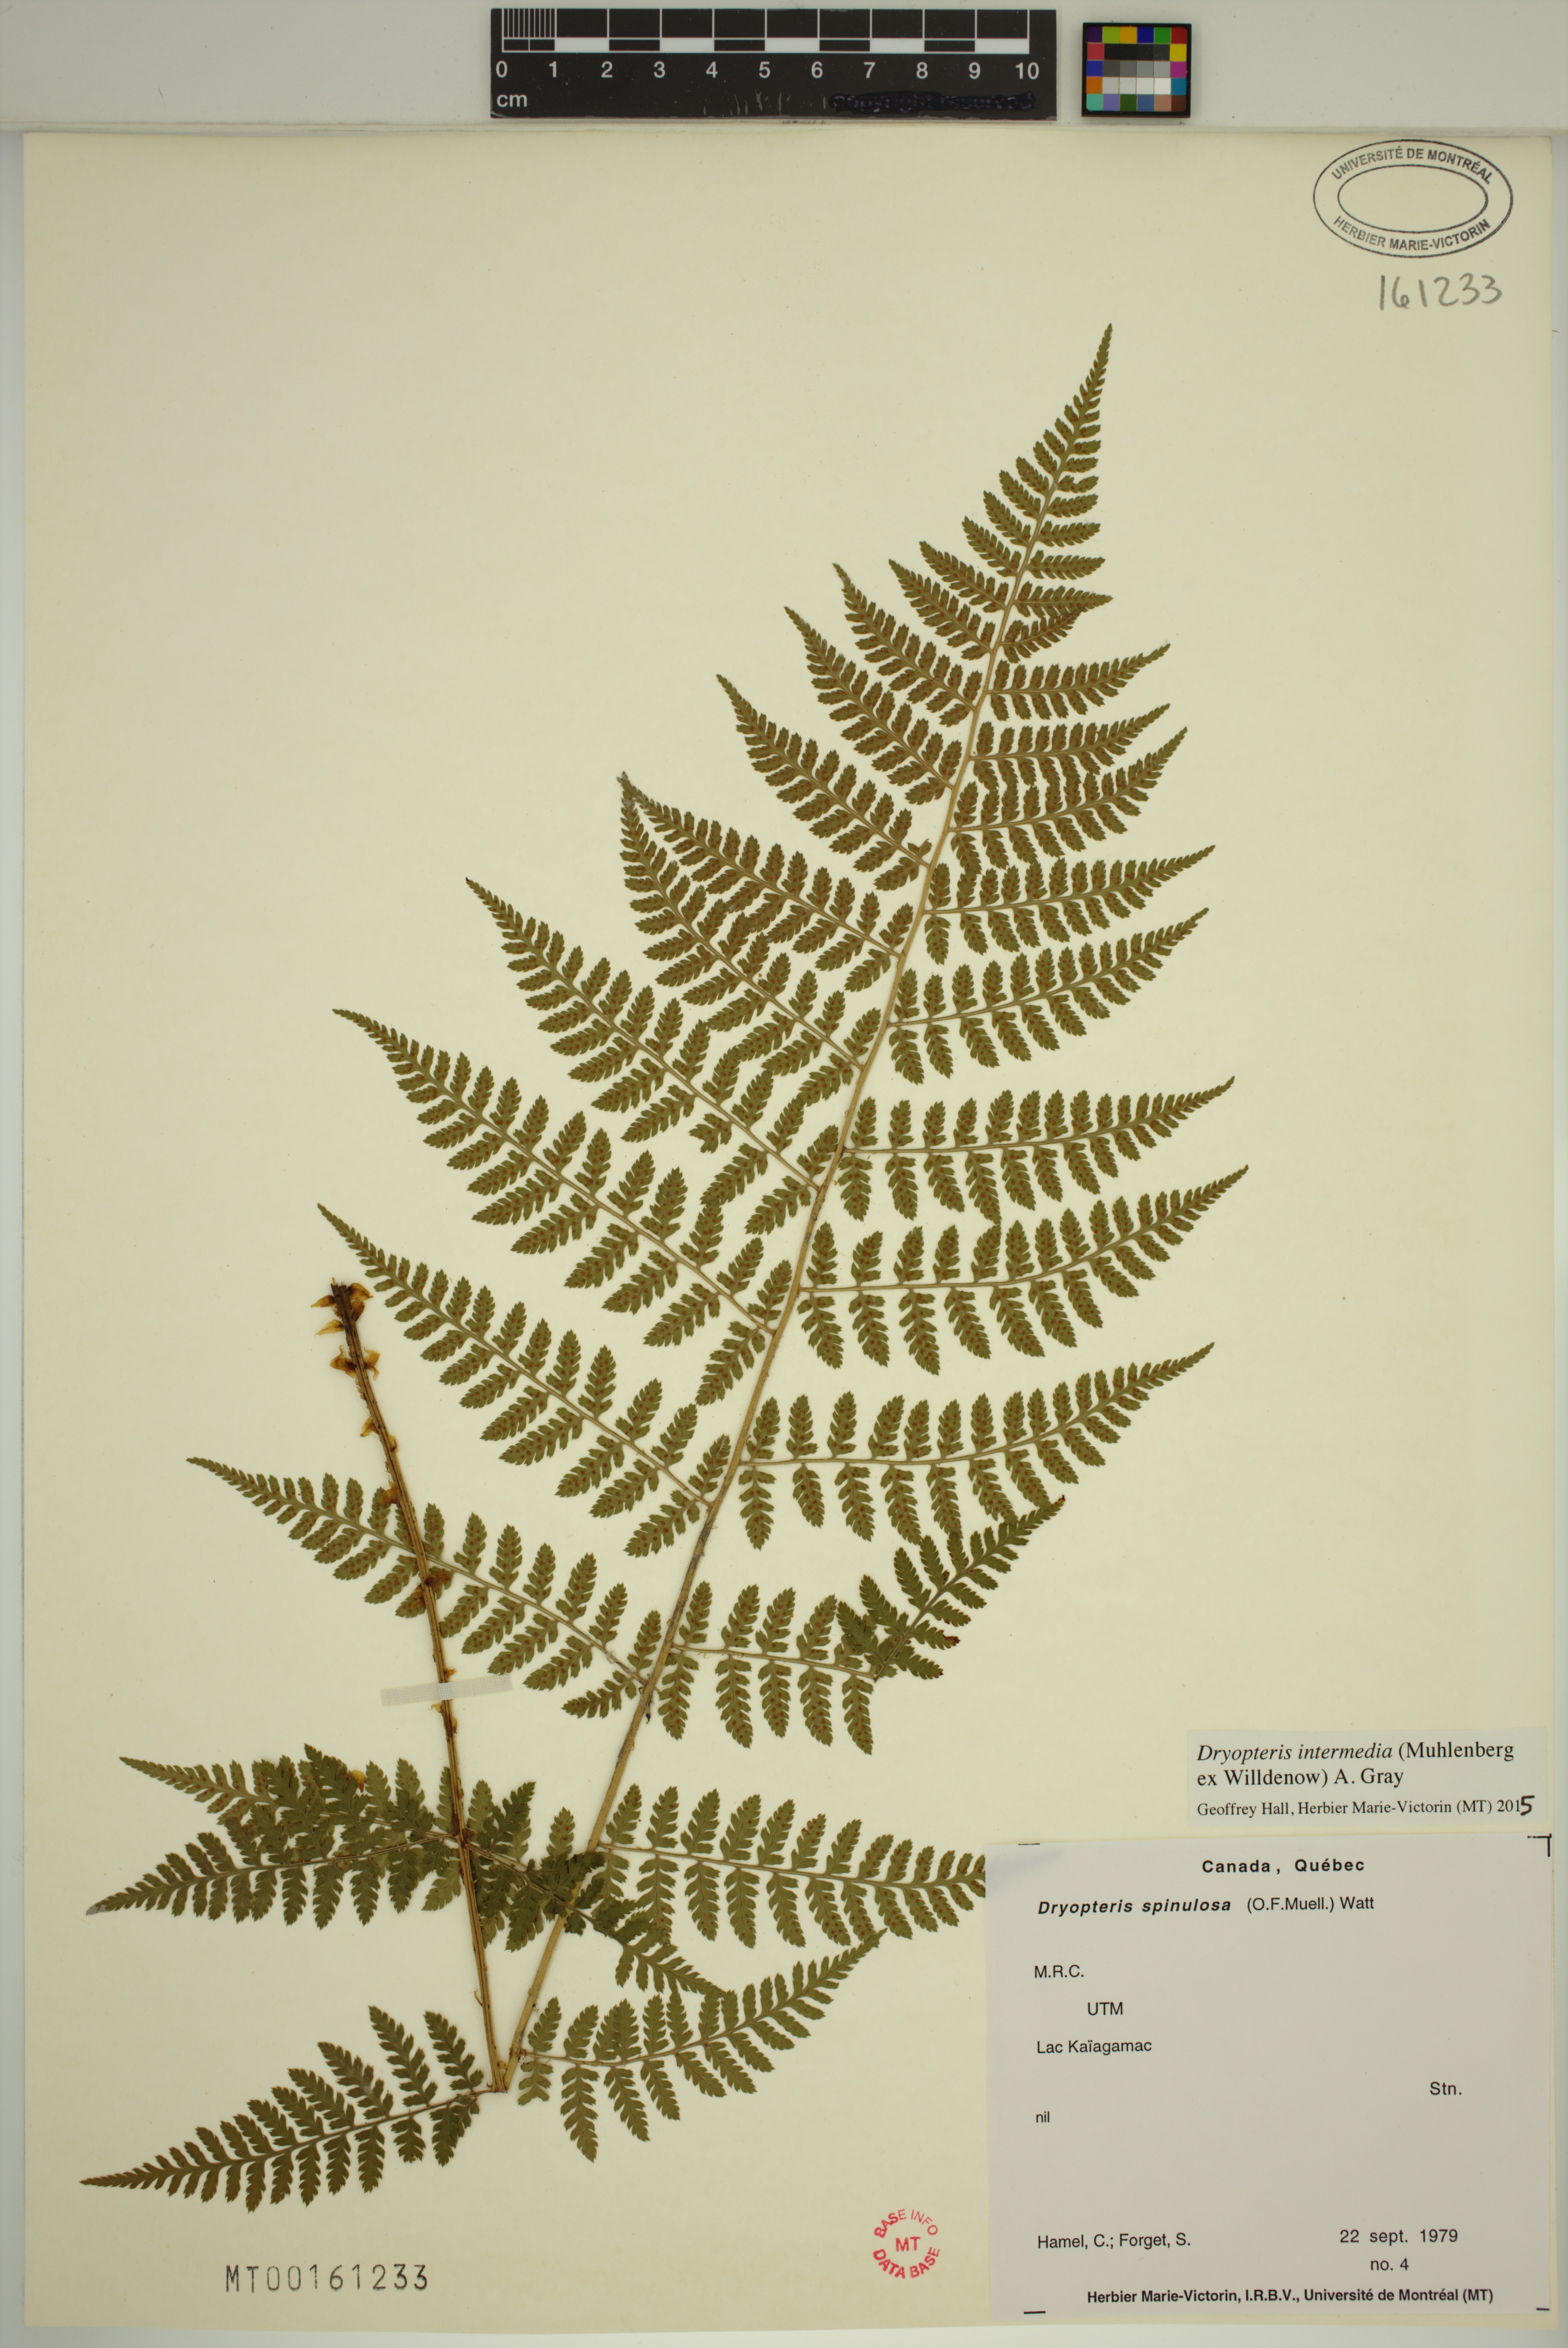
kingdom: Plantae
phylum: Tracheophyta
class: Polypodiopsida
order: Polypodiales
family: Dryopteridaceae
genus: Dryopteris
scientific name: Dryopteris intermedia
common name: Evergreen wood fern
